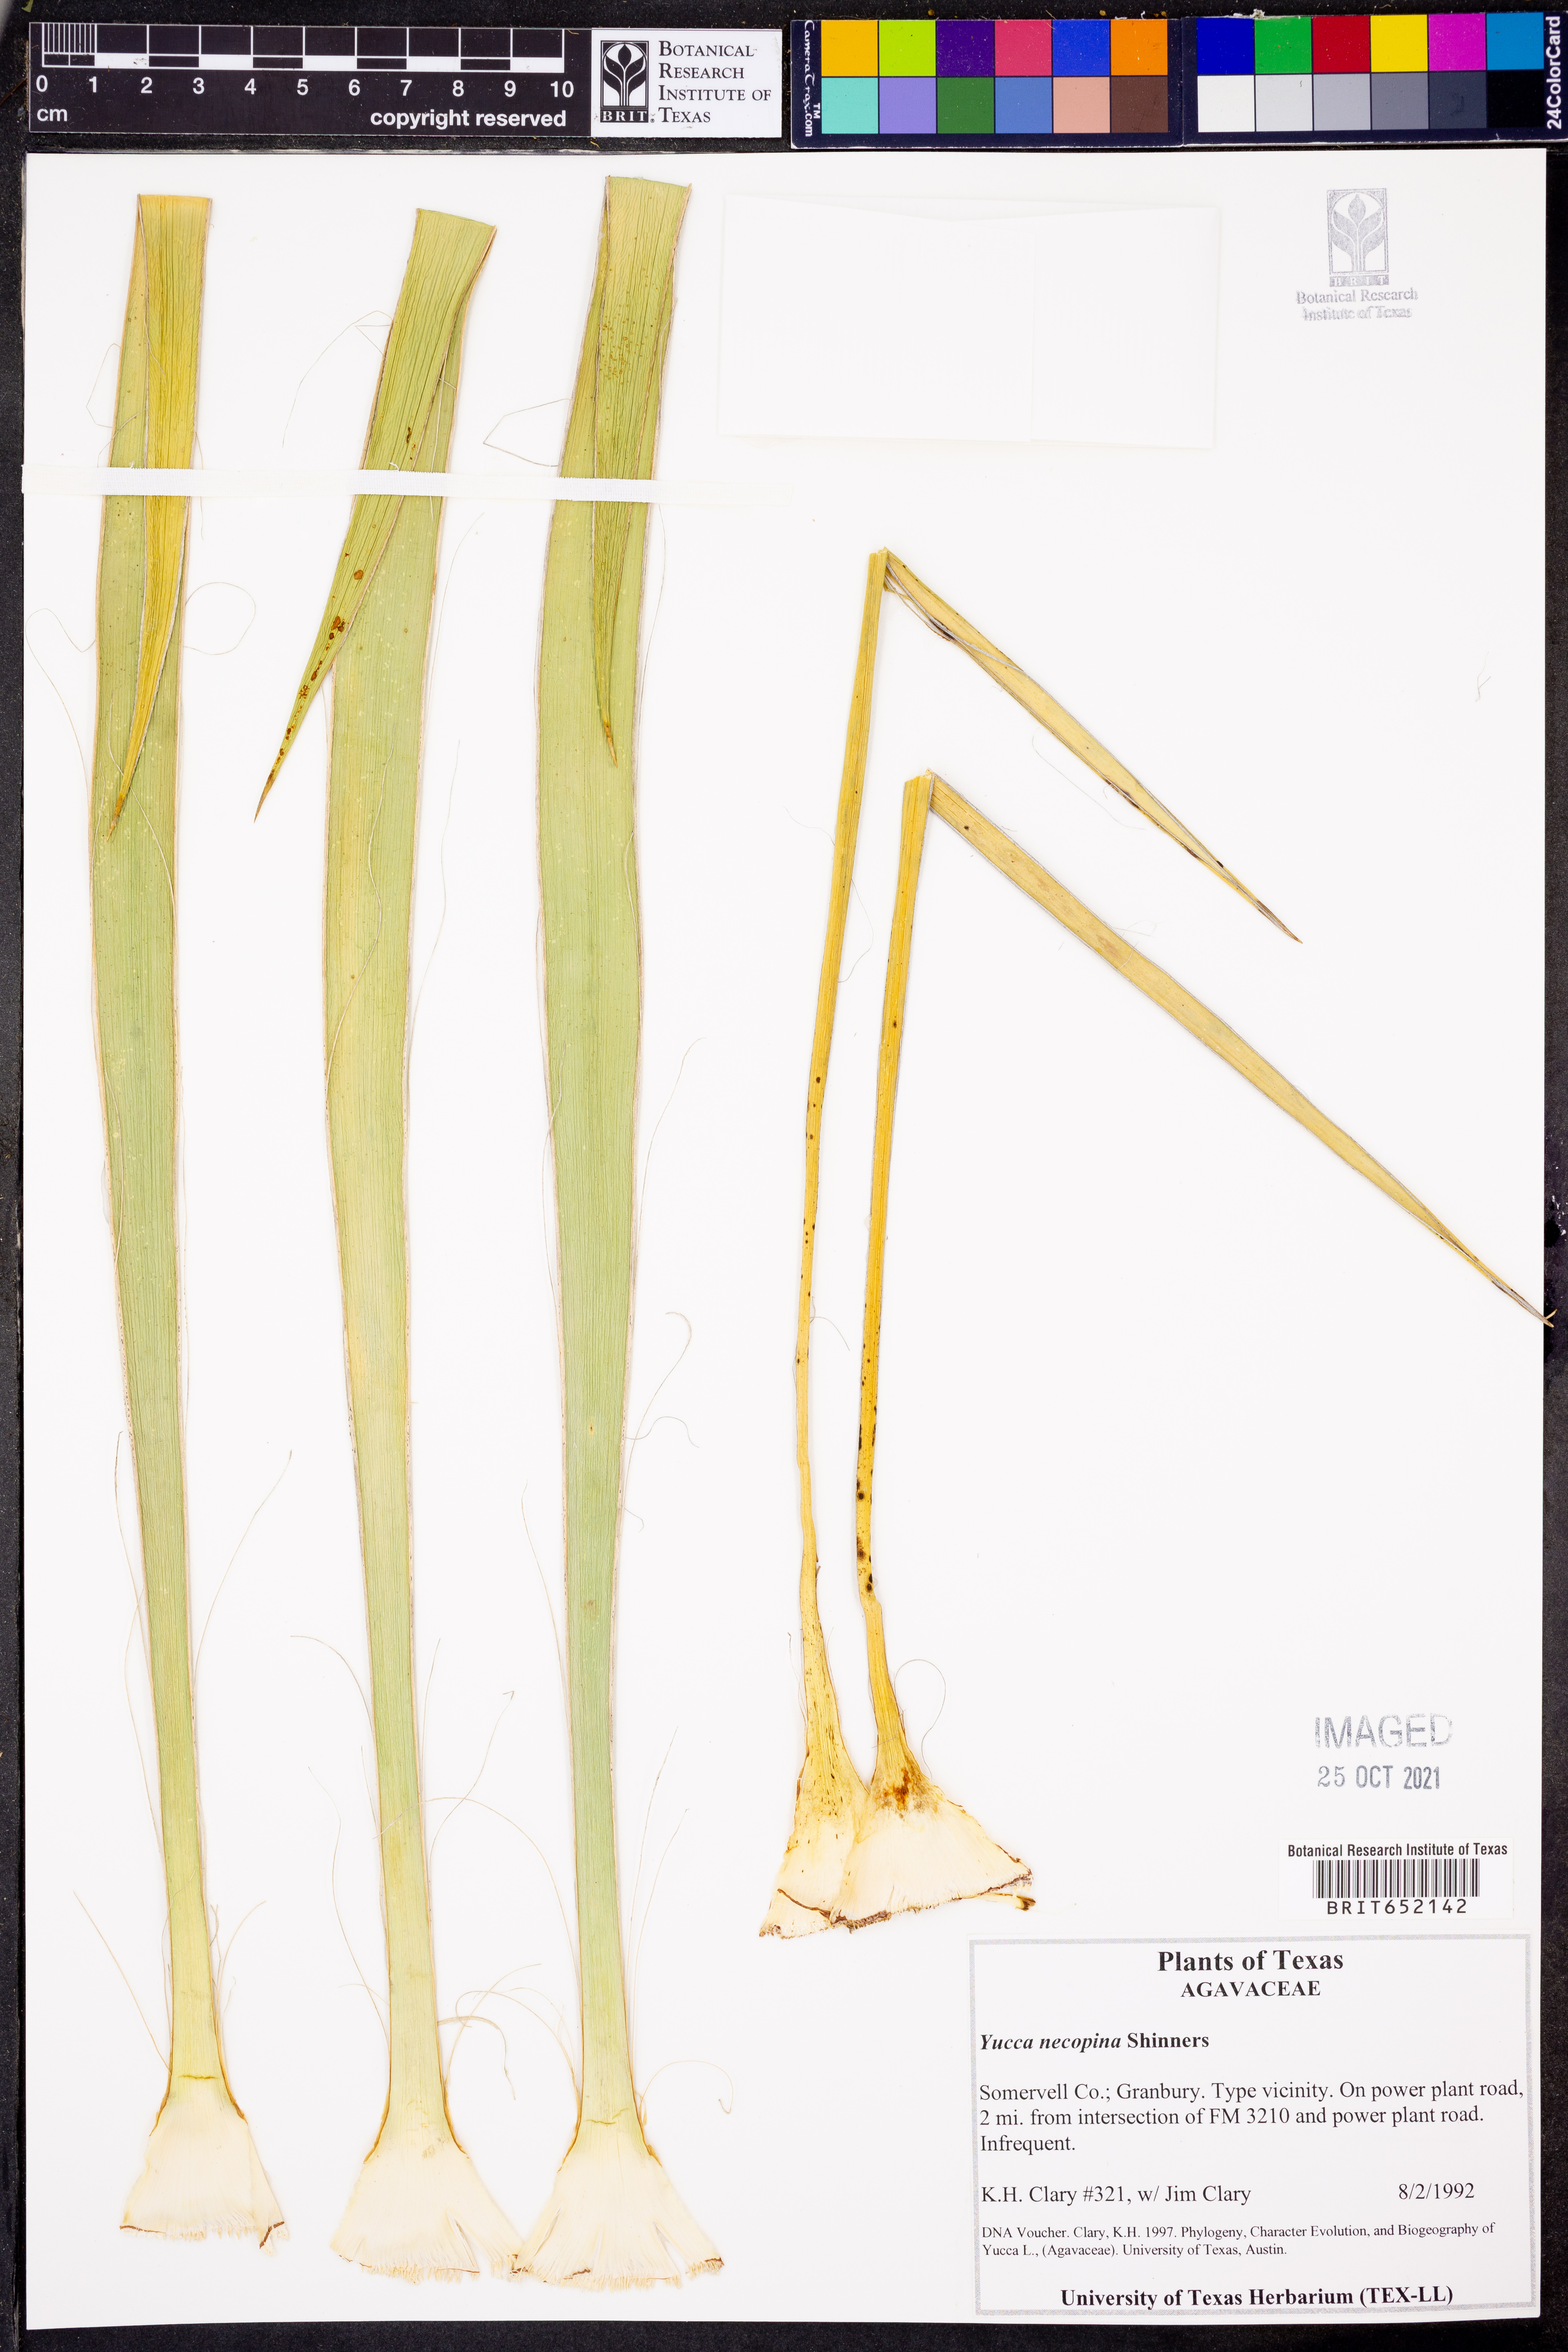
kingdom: Plantae
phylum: Tracheophyta
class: Liliopsida
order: Asparagales
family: Asparagaceae
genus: Yucca
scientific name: Yucca necopina
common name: Glen rose yucca
